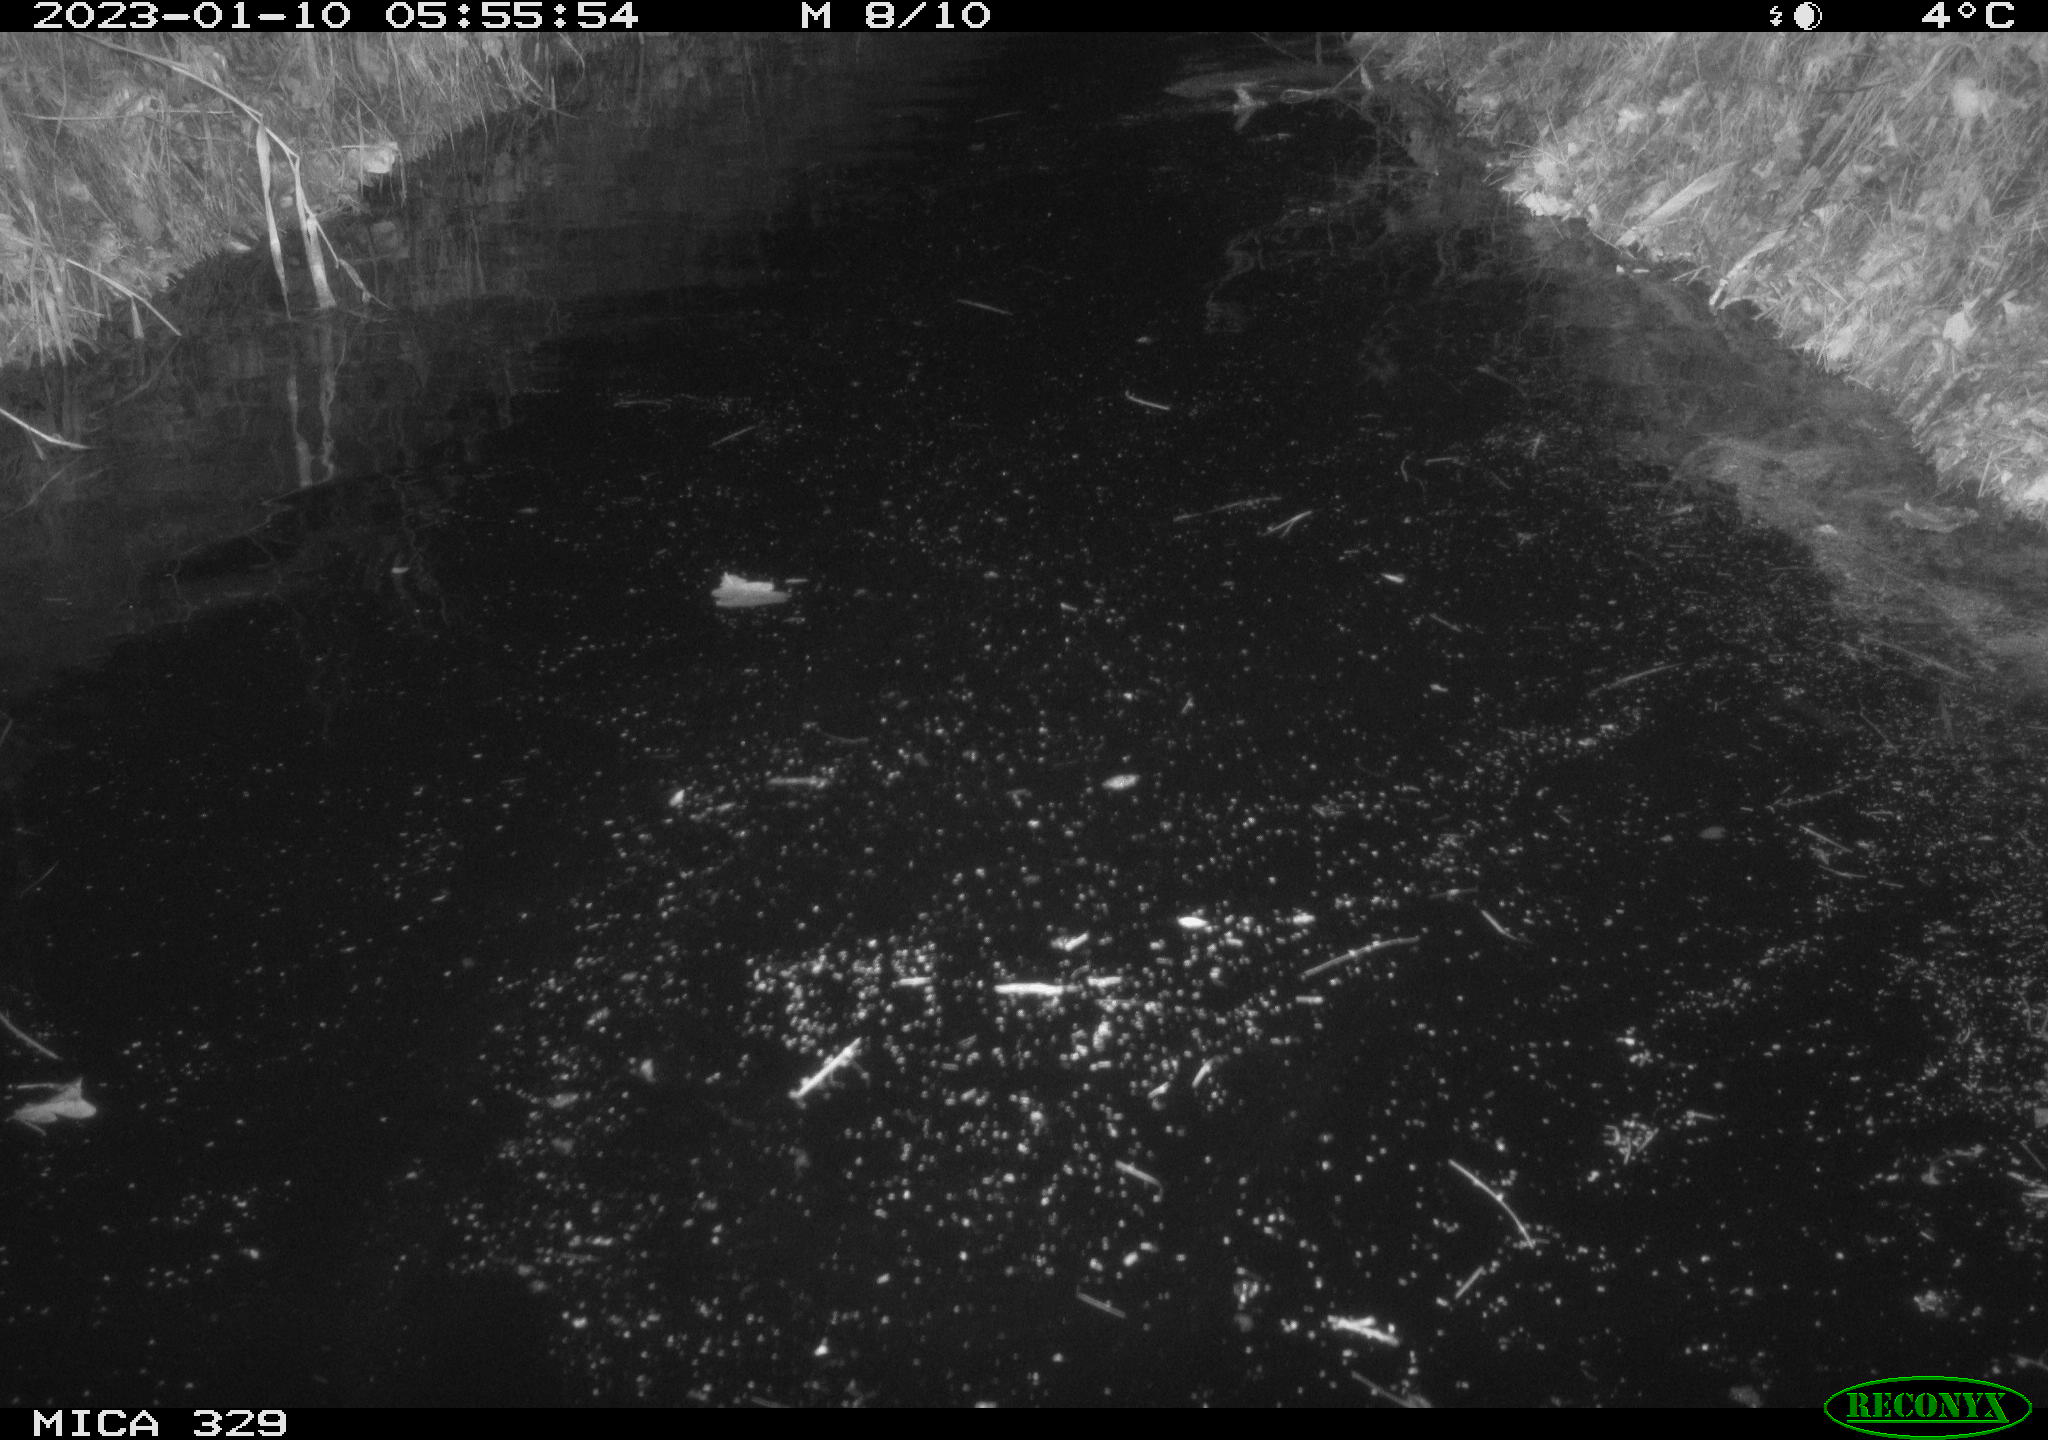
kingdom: Animalia
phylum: Chordata
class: Mammalia
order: Rodentia
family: Cricetidae
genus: Ondatra
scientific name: Ondatra zibethicus
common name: Muskrat
